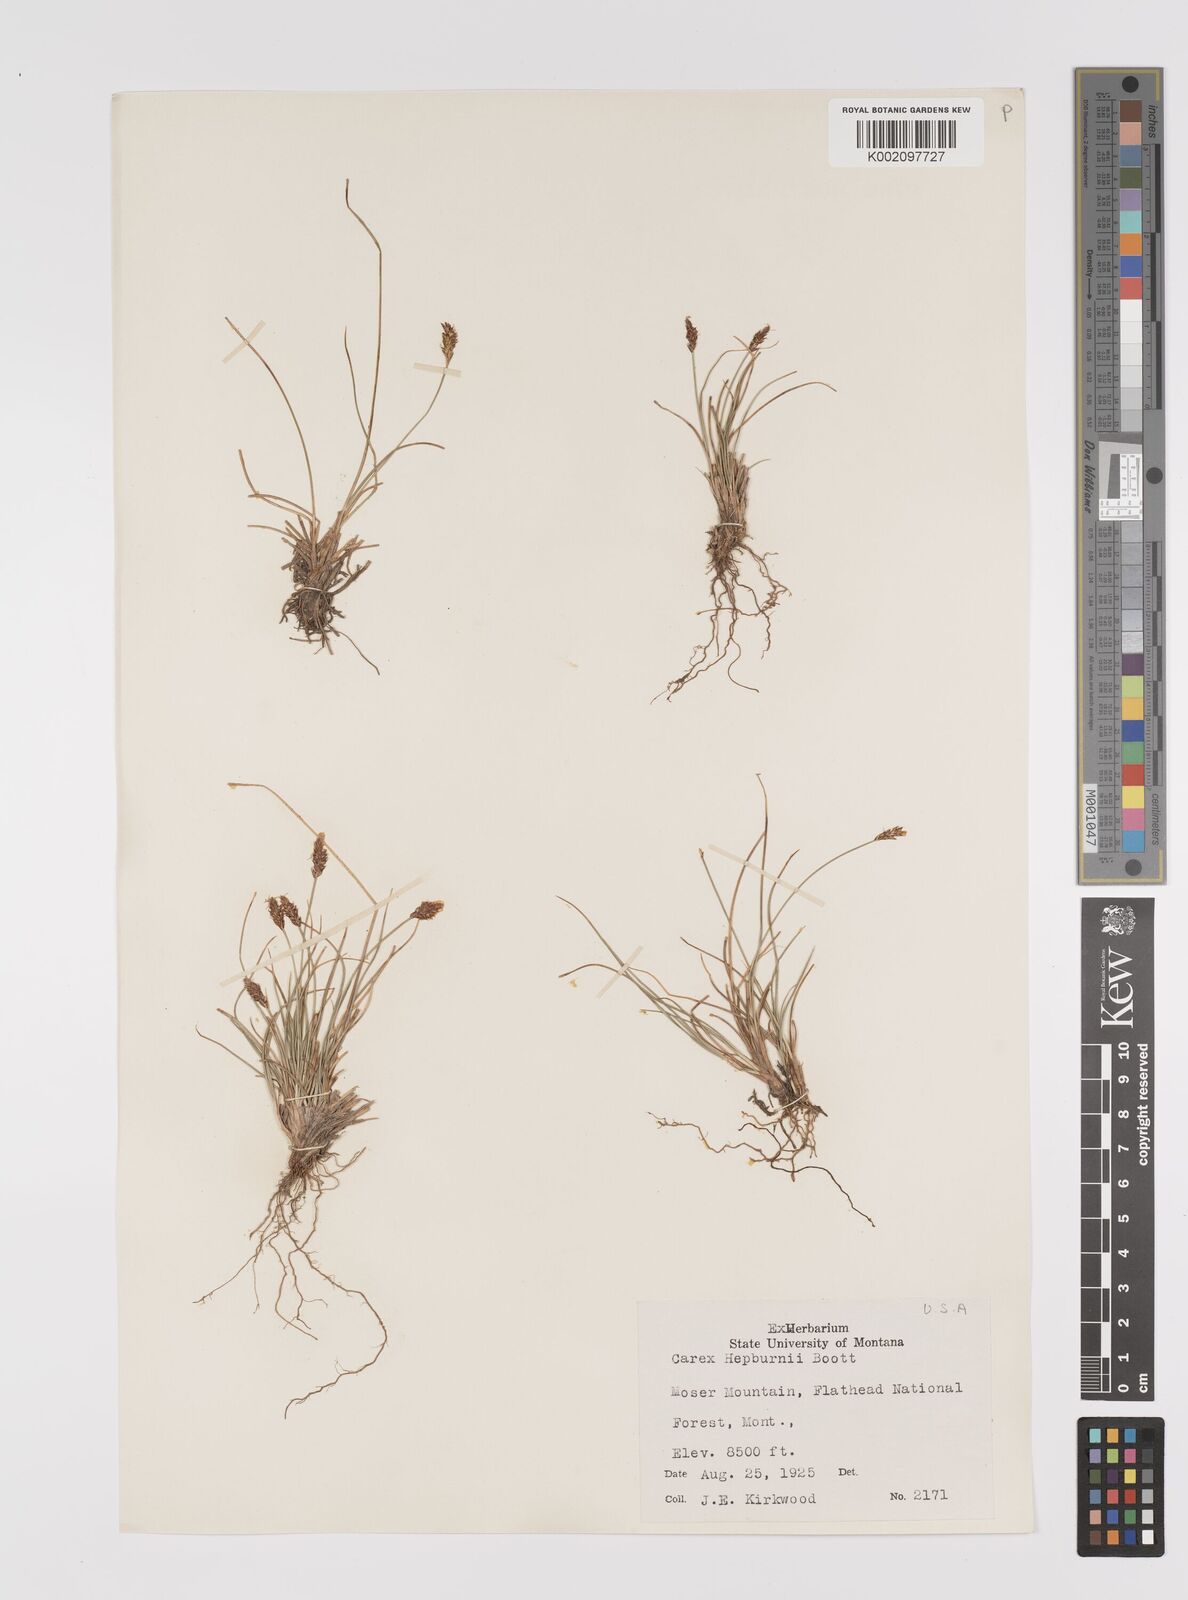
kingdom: Plantae
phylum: Tracheophyta
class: Liliopsida
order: Poales
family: Cyperaceae
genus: Carex
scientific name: Carex nardina
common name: Nard sedge
